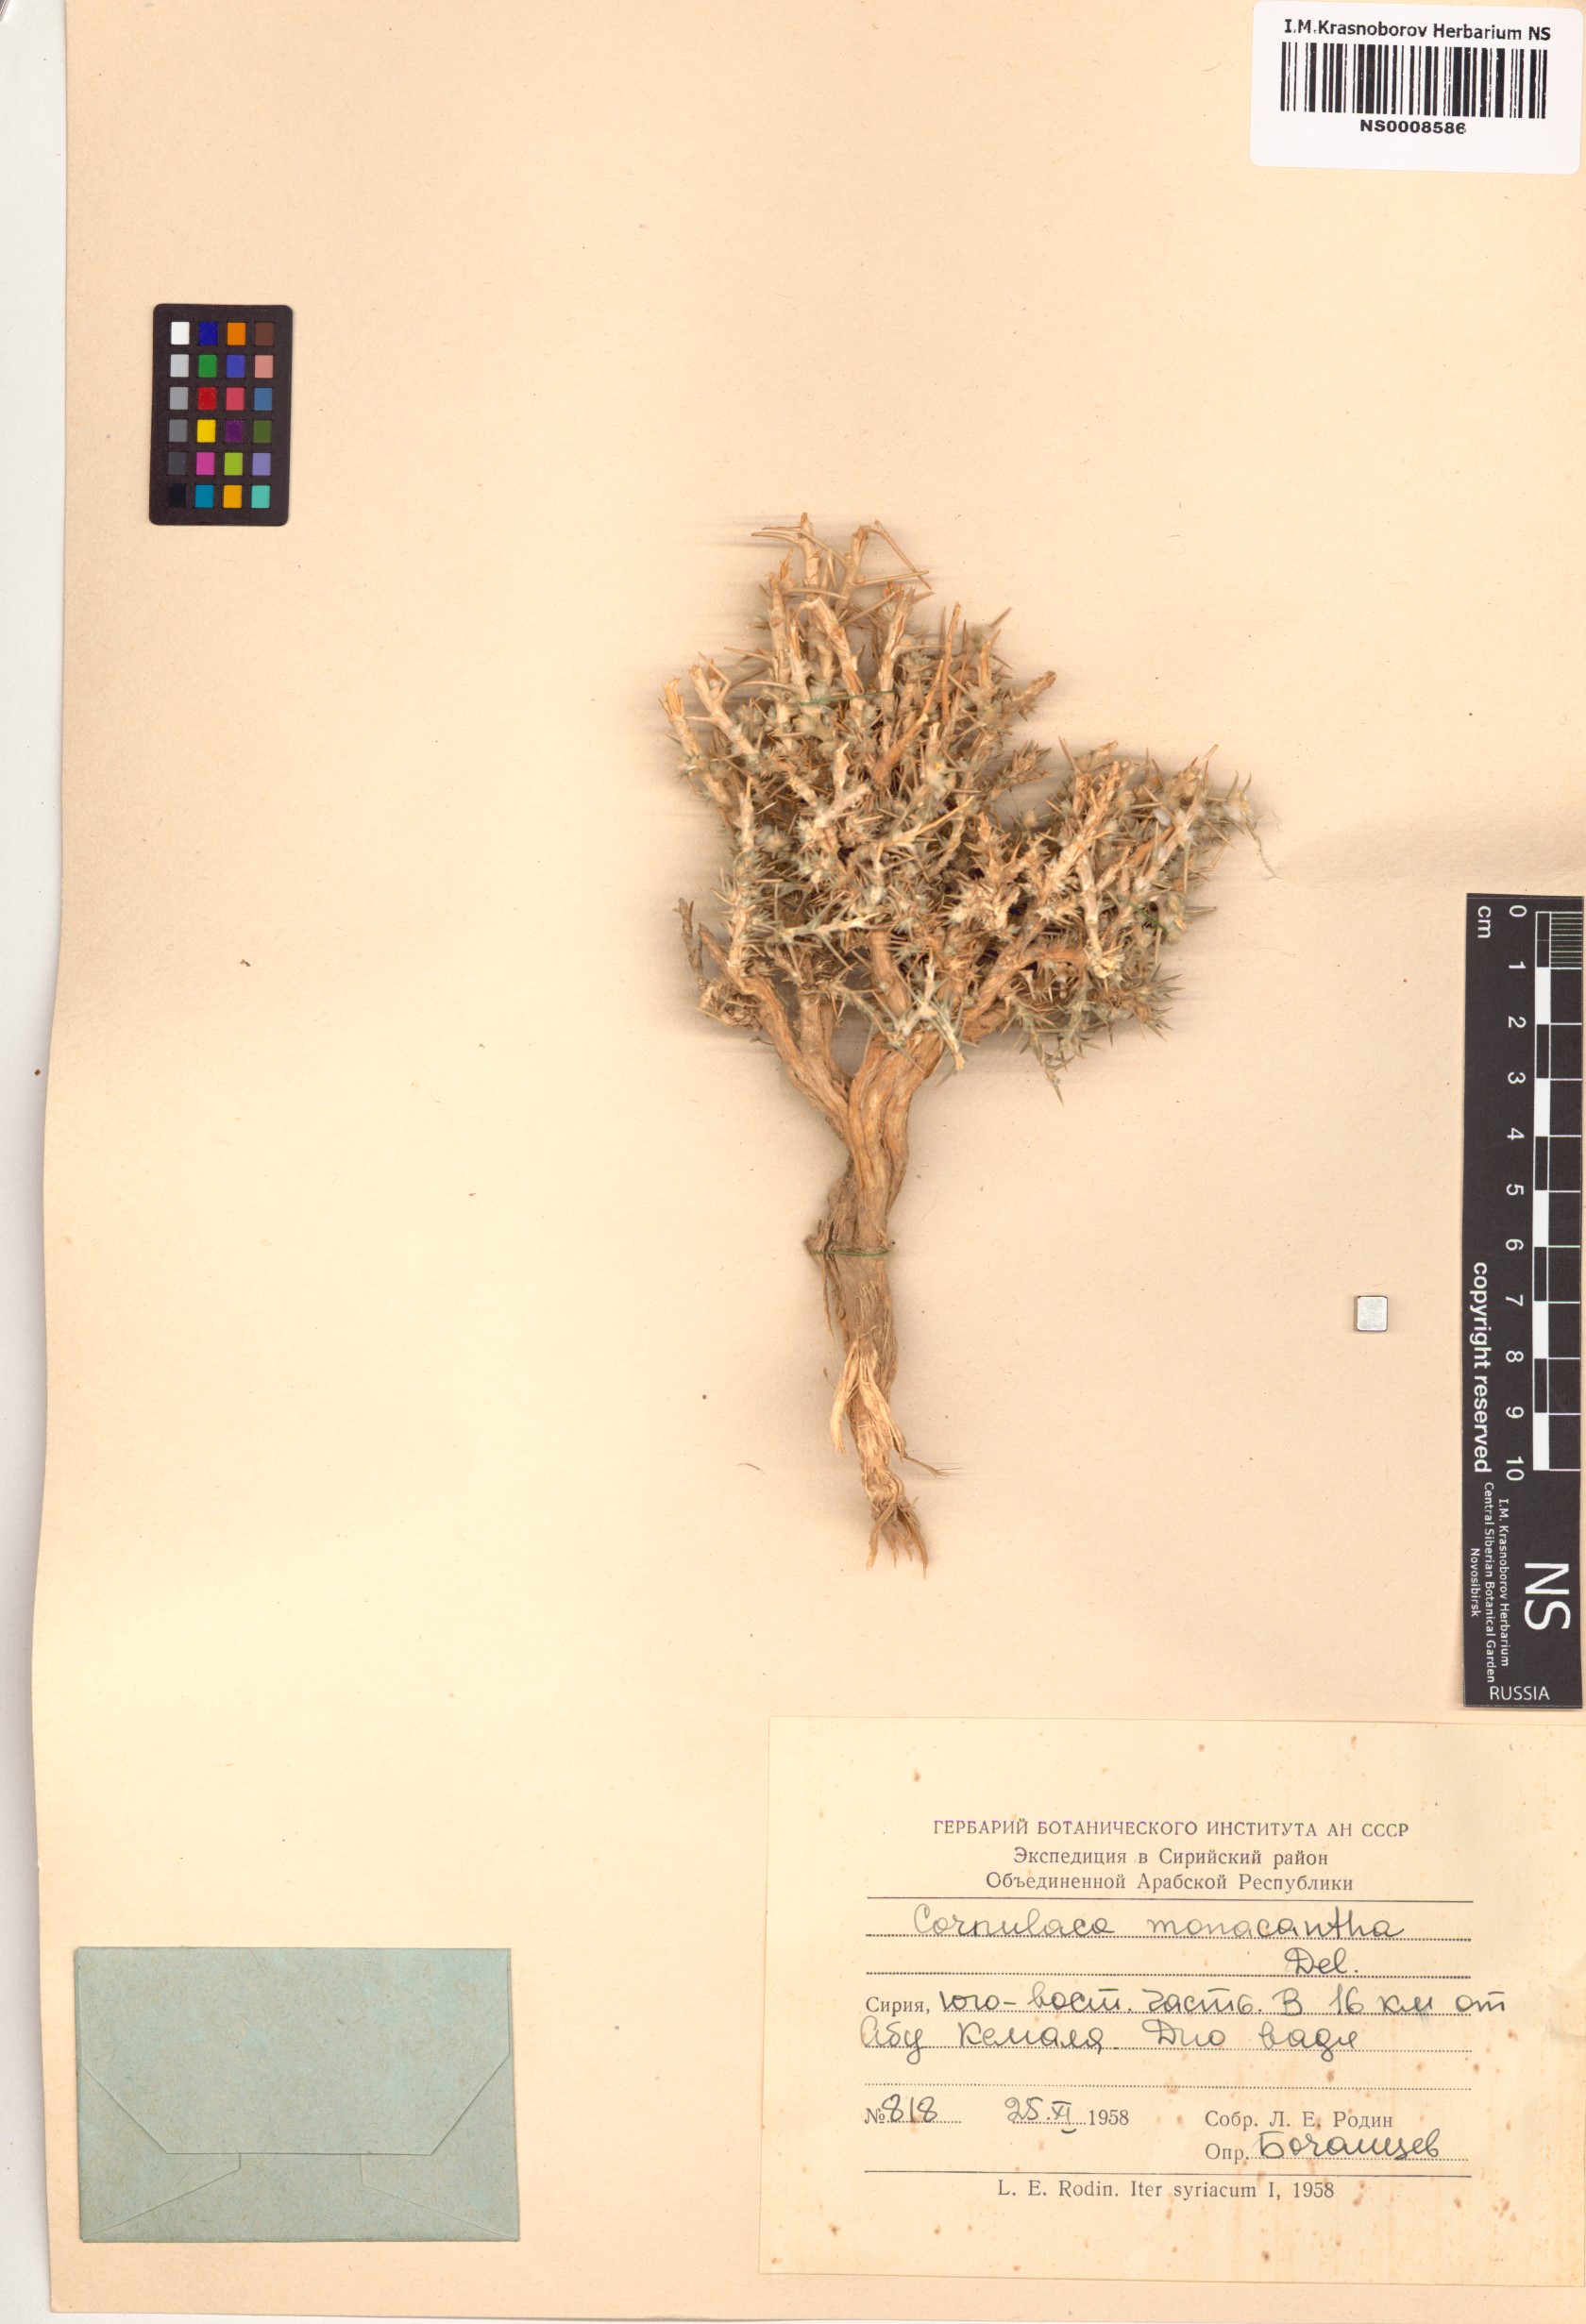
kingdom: Plantae
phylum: Tracheophyta
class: Magnoliopsida
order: Caryophyllales
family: Amaranthaceae
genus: Cornulaca
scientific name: Cornulaca monacantha
